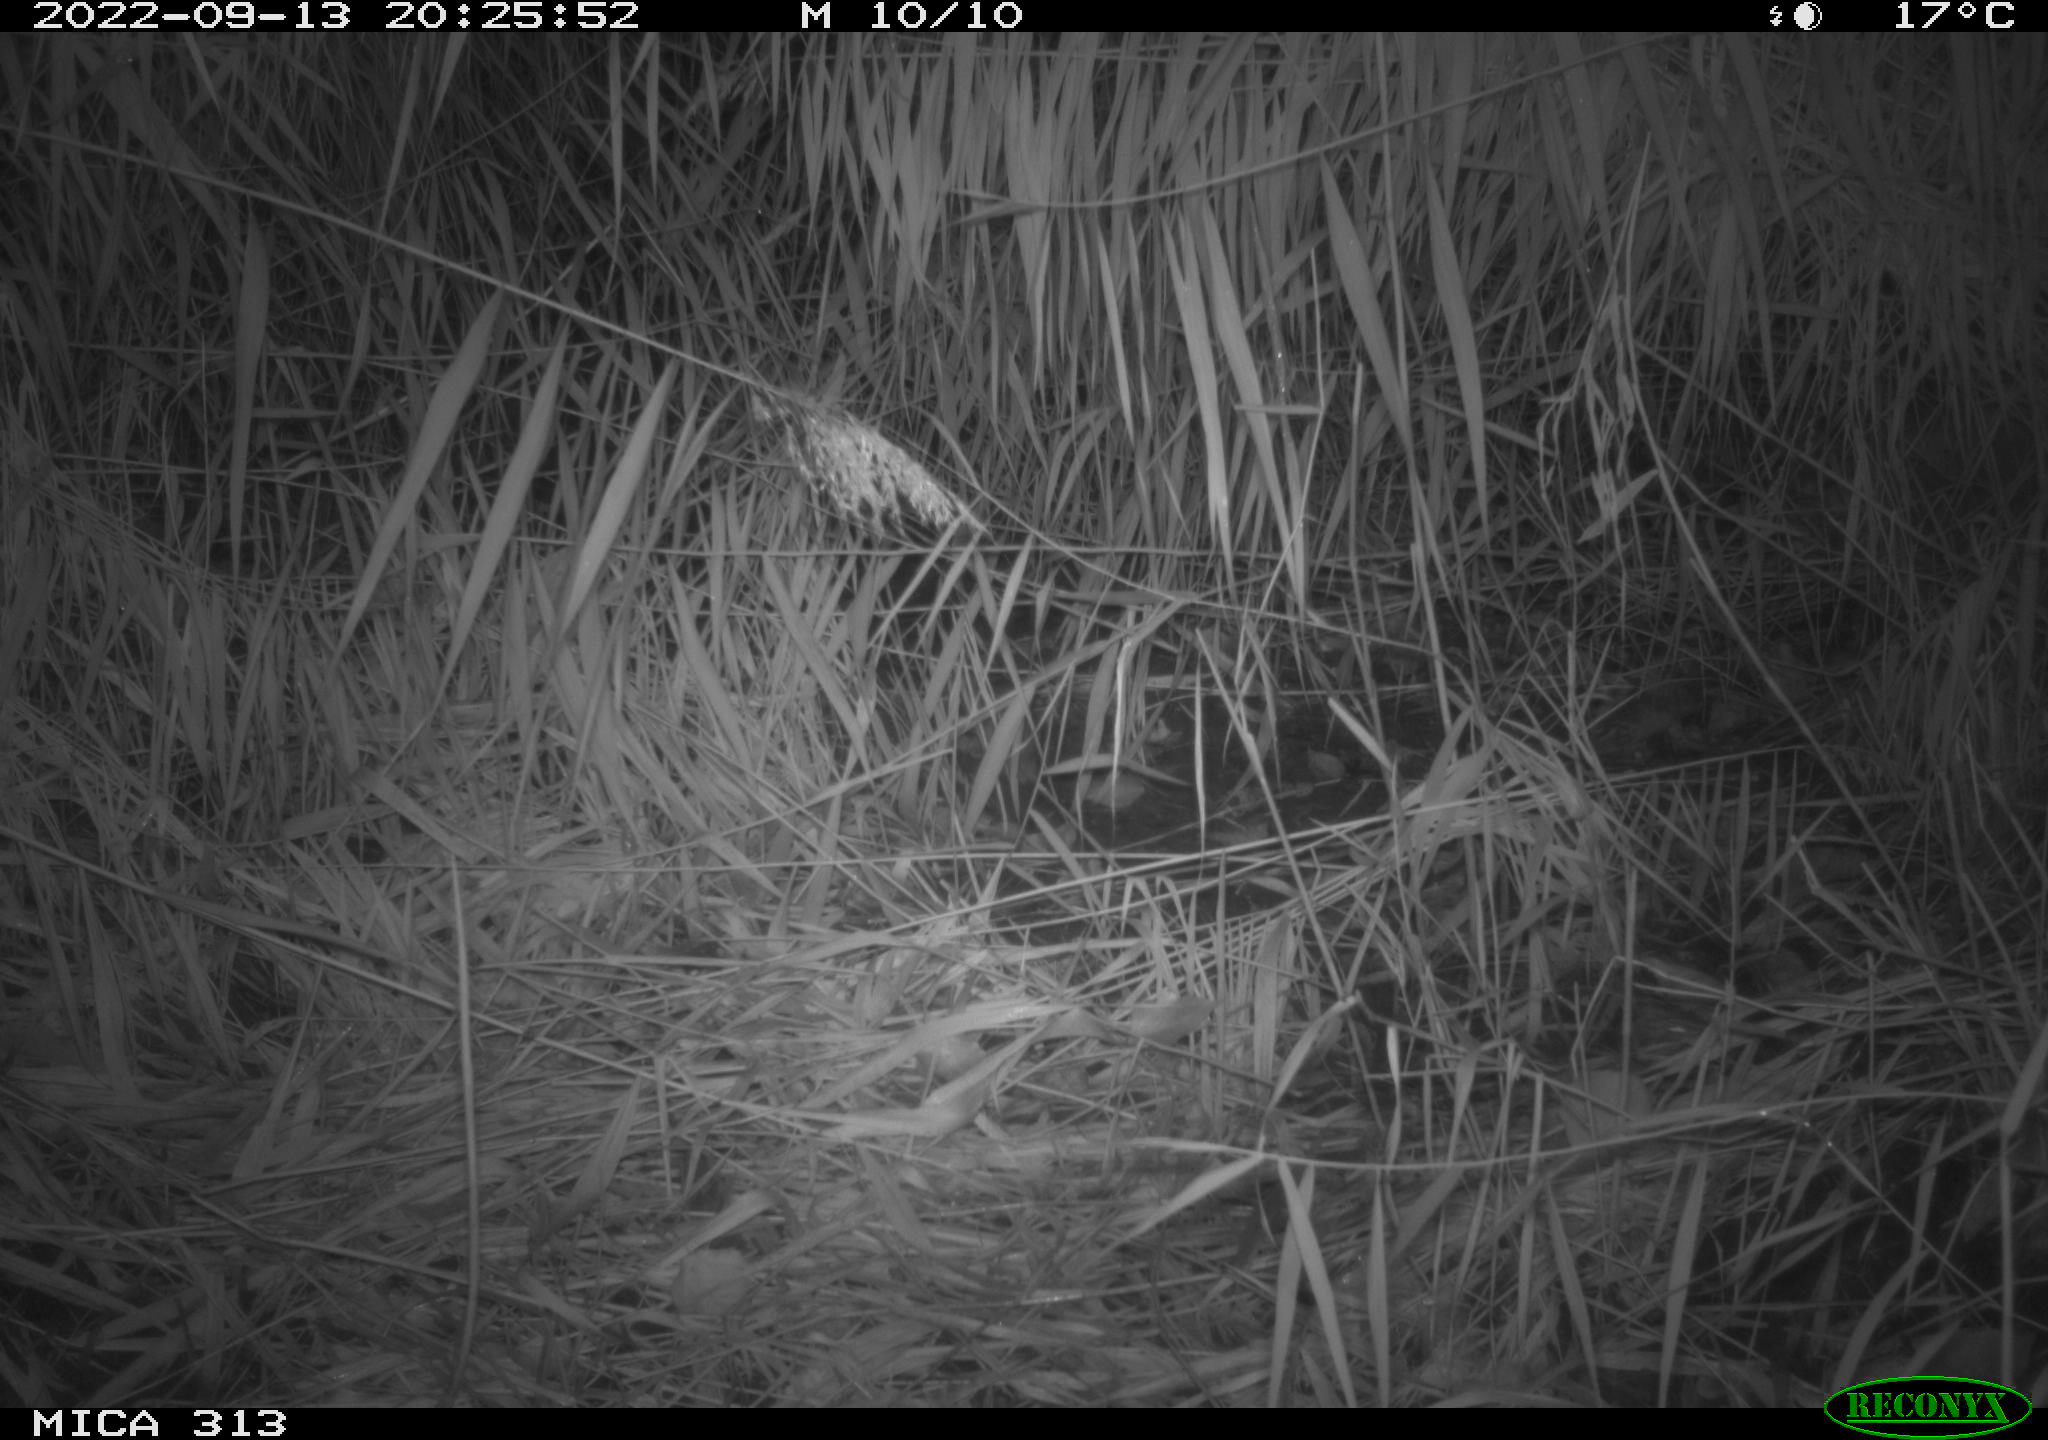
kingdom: Animalia
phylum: Chordata
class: Mammalia
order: Rodentia
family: Muridae
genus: Rattus
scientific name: Rattus norvegicus
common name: Brown rat
